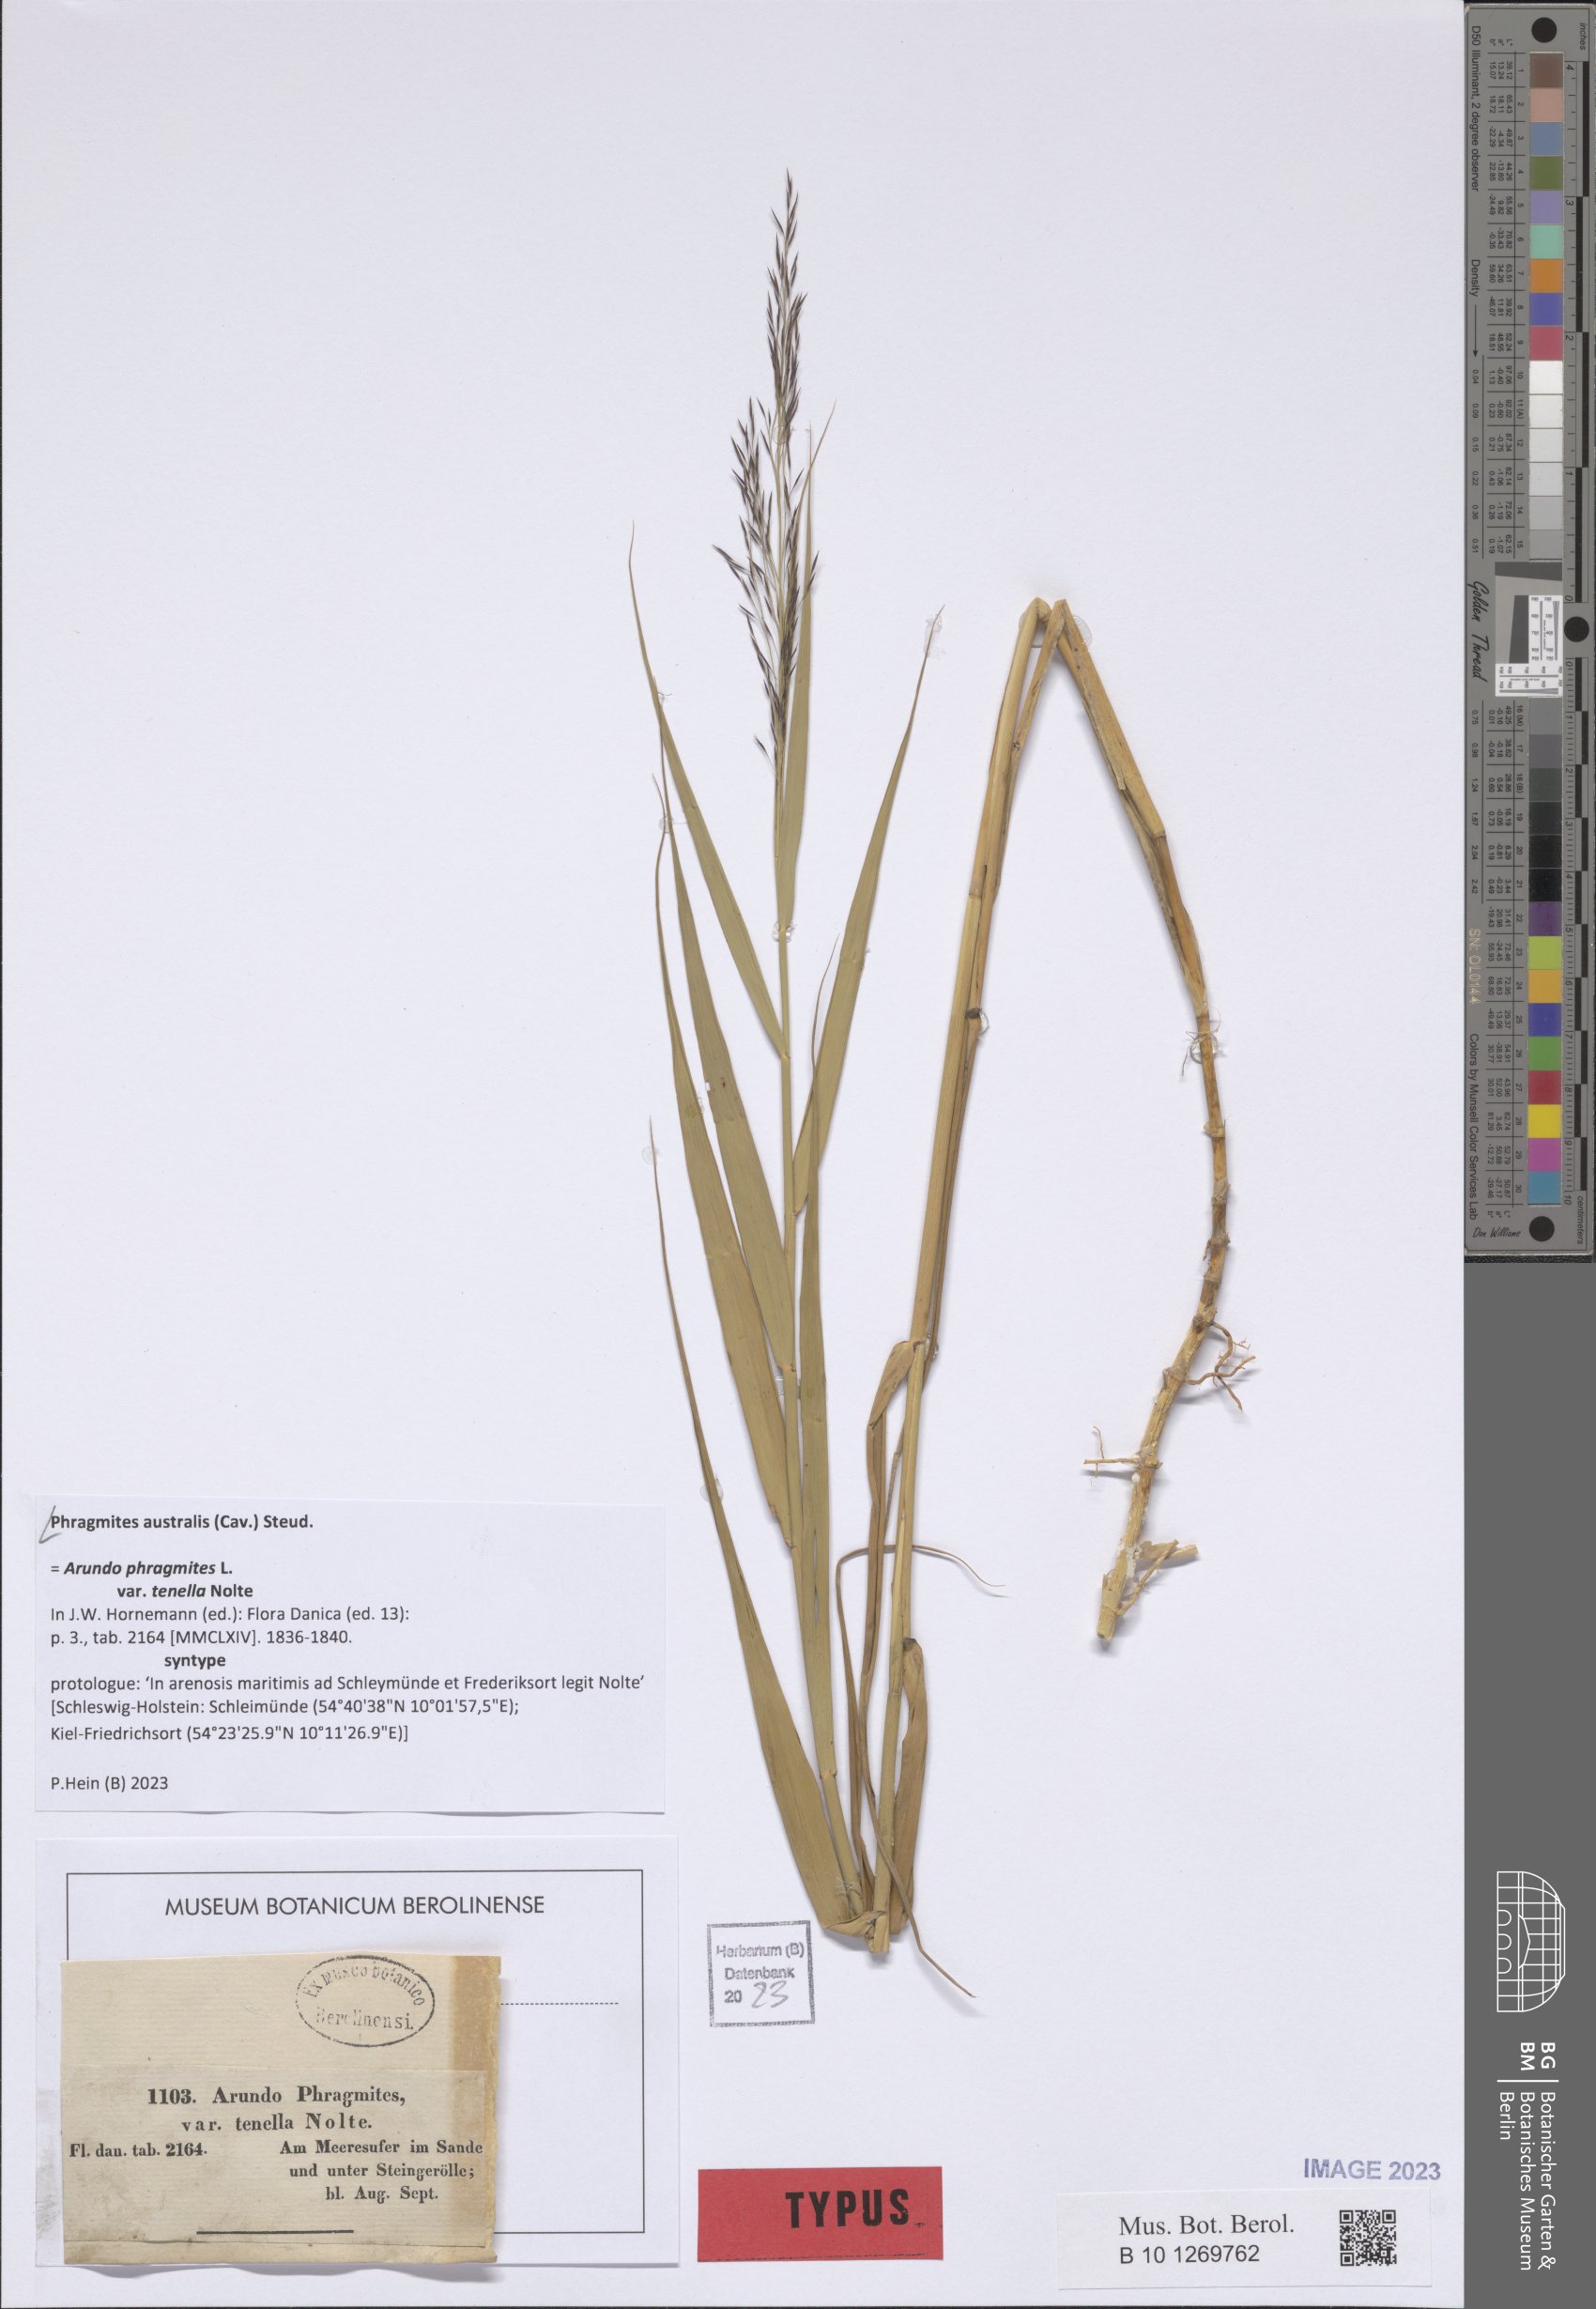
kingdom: Plantae
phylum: Tracheophyta
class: Liliopsida
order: Poales
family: Poaceae
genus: Phragmites
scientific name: Phragmites australis
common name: Common reed
